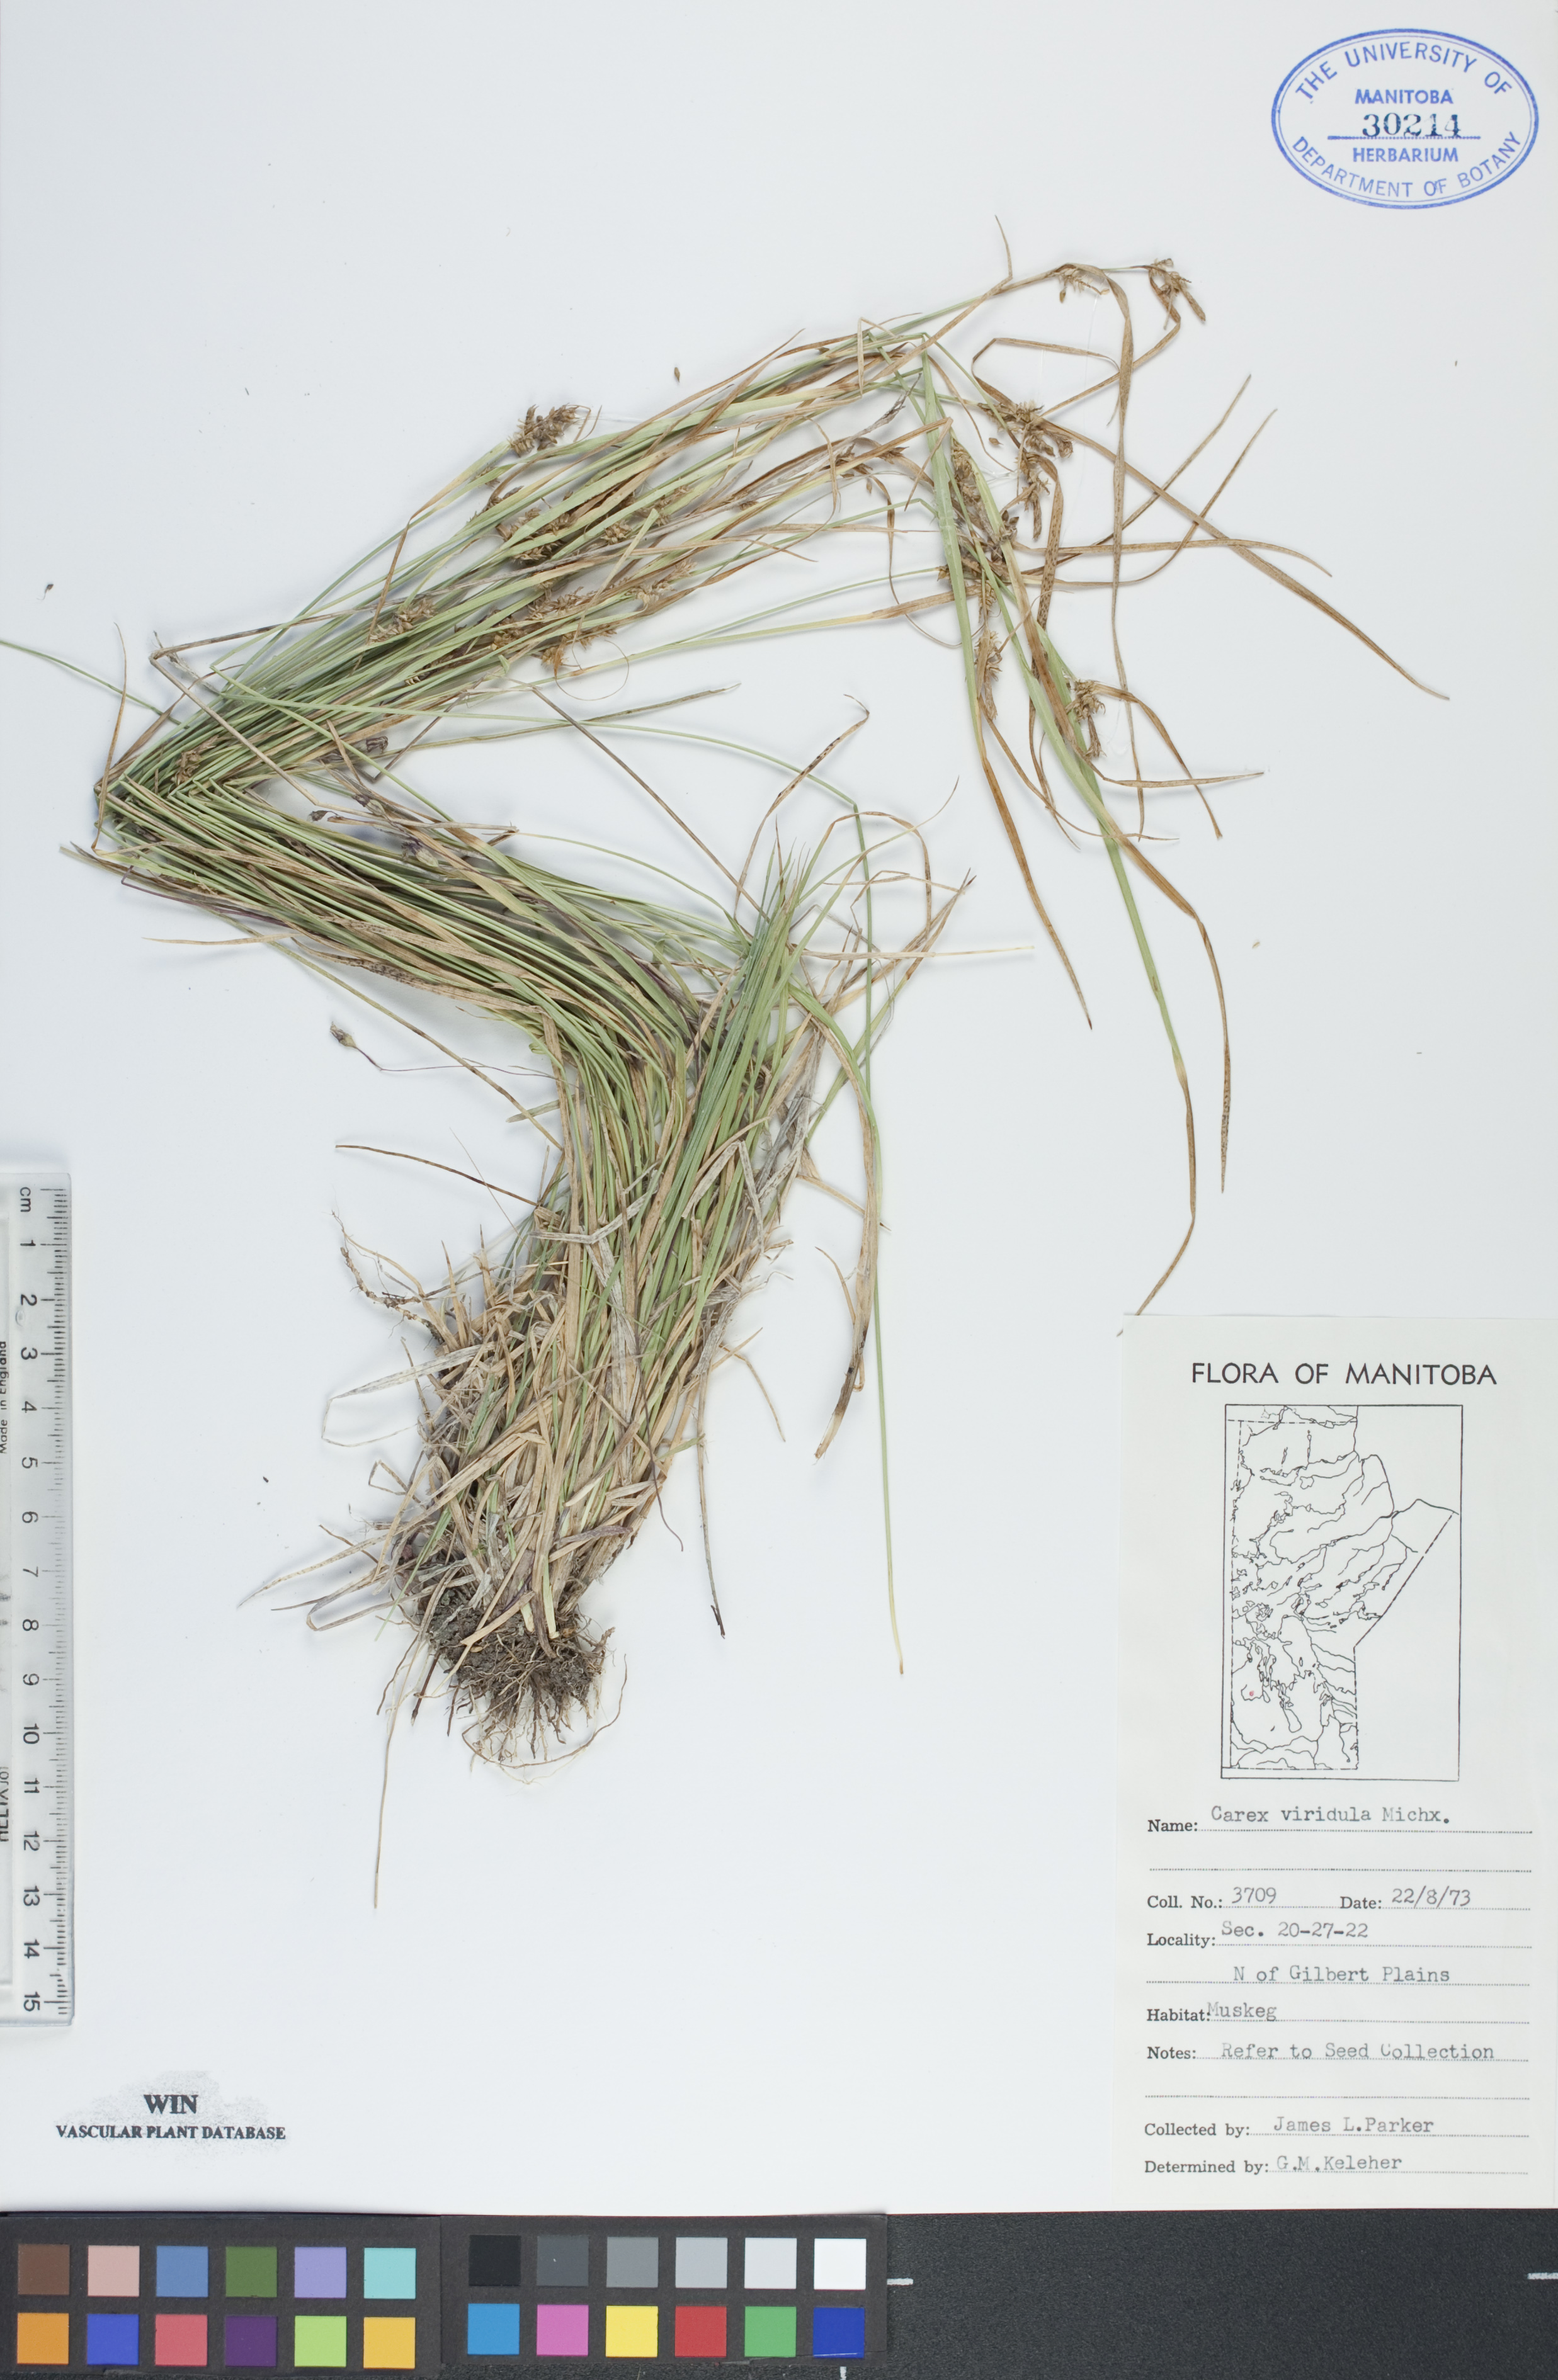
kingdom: Plantae
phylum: Tracheophyta
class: Liliopsida
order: Poales
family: Cyperaceae
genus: Carex
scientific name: Carex oederi
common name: Common & small-fruited yellow-sedge
